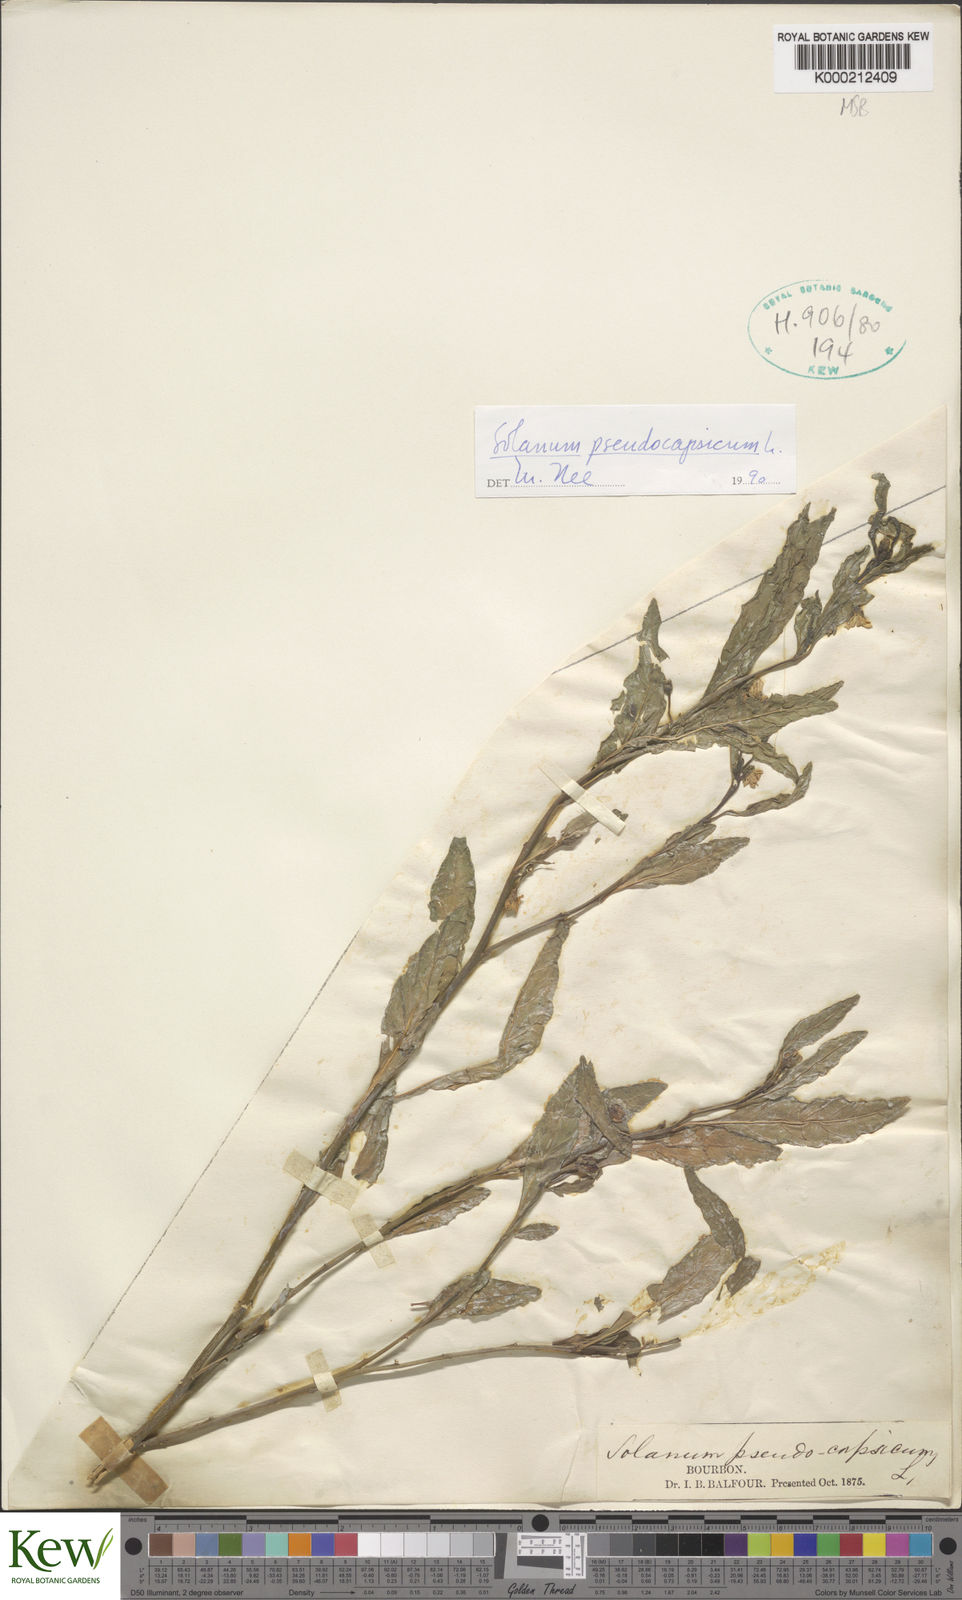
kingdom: Plantae
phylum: Tracheophyta
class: Magnoliopsida
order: Solanales
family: Solanaceae
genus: Solanum
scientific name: Solanum pseudocapsicum
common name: Jerusalem cherry
